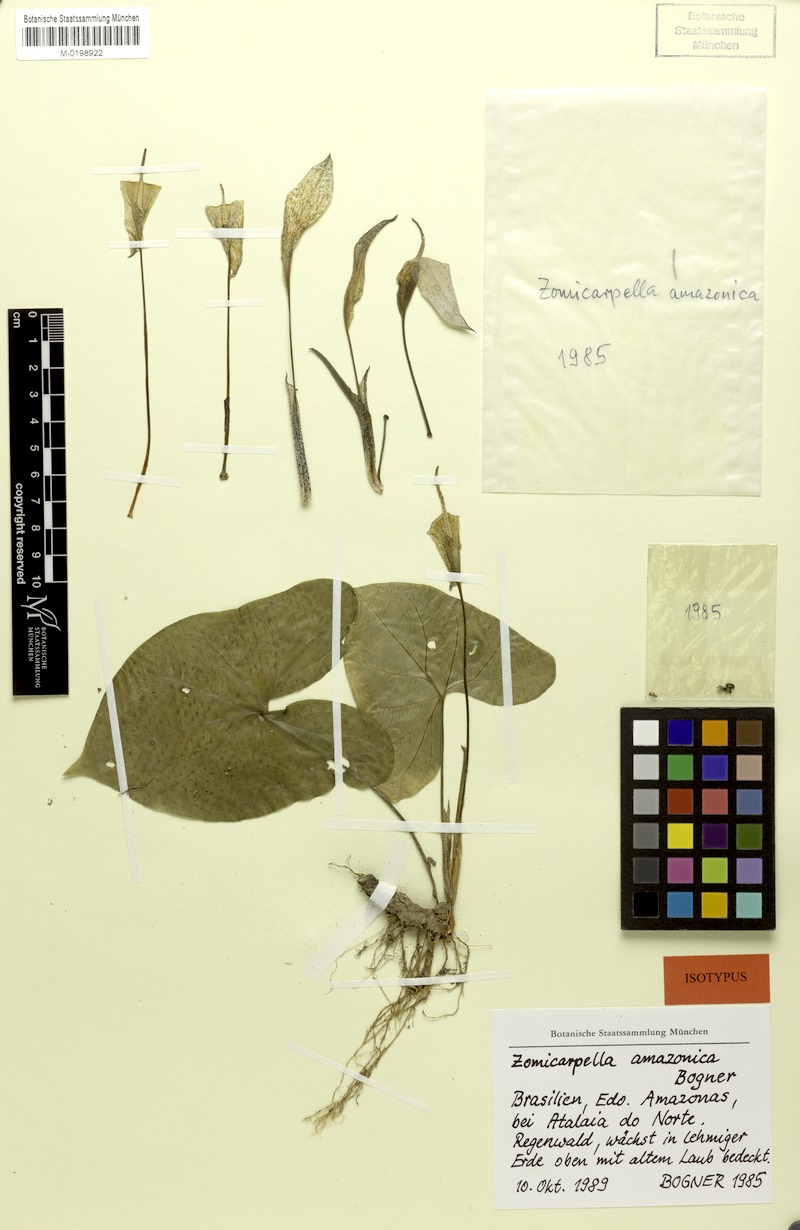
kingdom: Plantae
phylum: Tracheophyta
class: Liliopsida
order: Alismatales
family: Araceae
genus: Zomicarpella
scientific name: Zomicarpella amazonica
